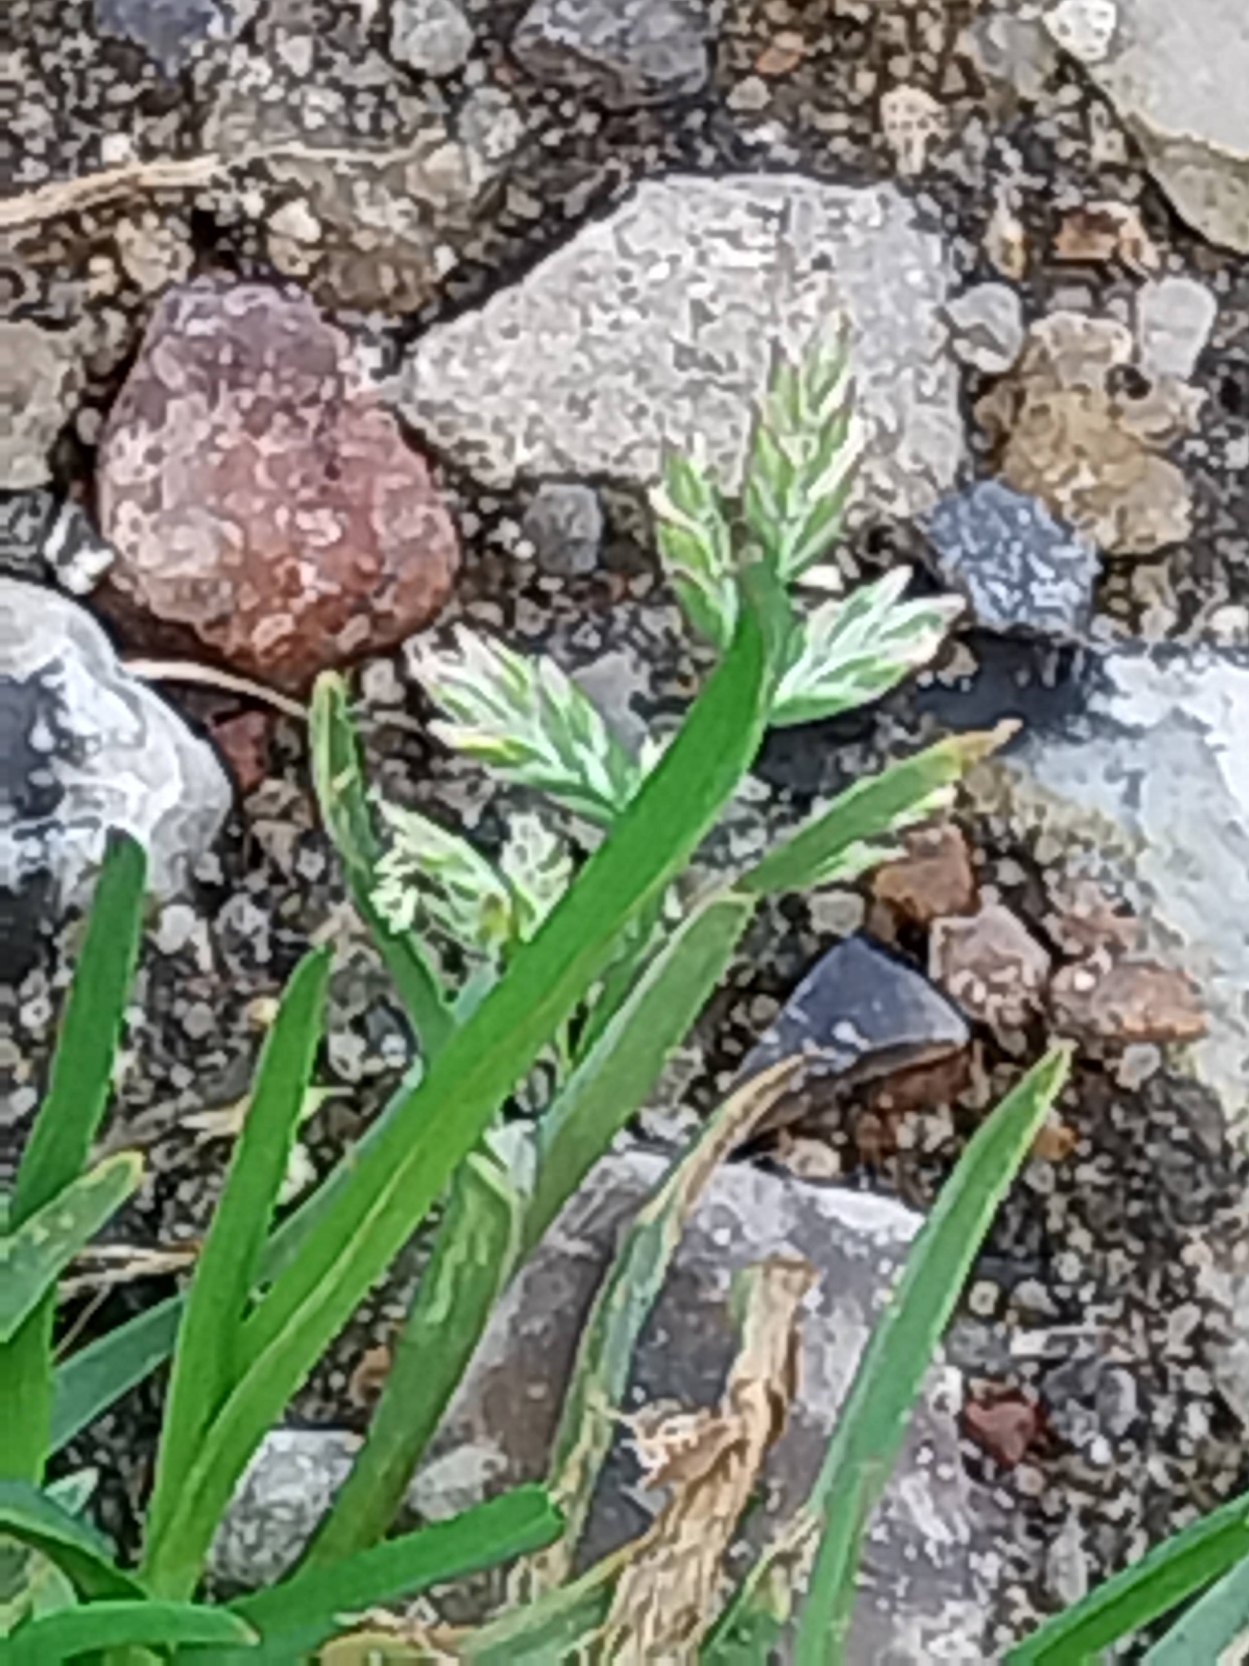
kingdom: Plantae
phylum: Tracheophyta
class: Liliopsida
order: Poales
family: Poaceae
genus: Poa
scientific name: Poa annua
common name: Enårig rapgræs
